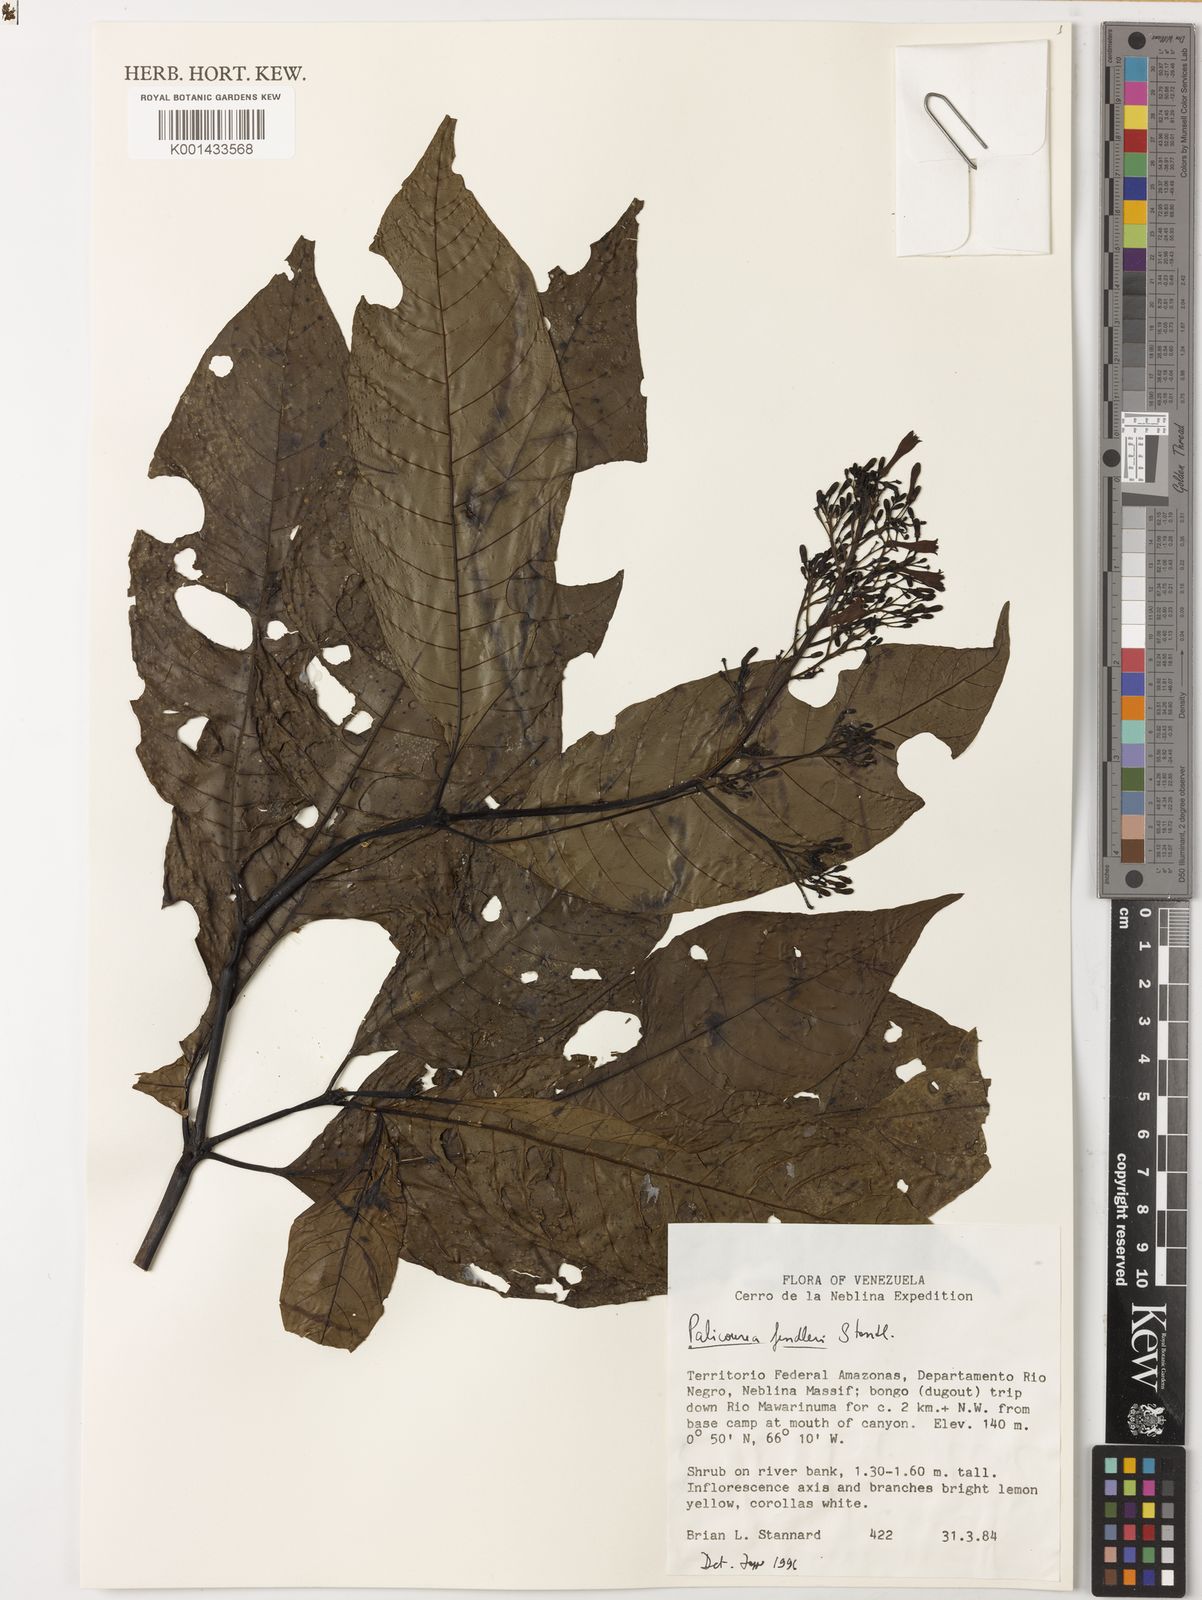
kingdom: Plantae
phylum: Tracheophyta
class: Magnoliopsida
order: Gentianales
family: Rubiaceae
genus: Palicourea
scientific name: Palicourea semirasa
